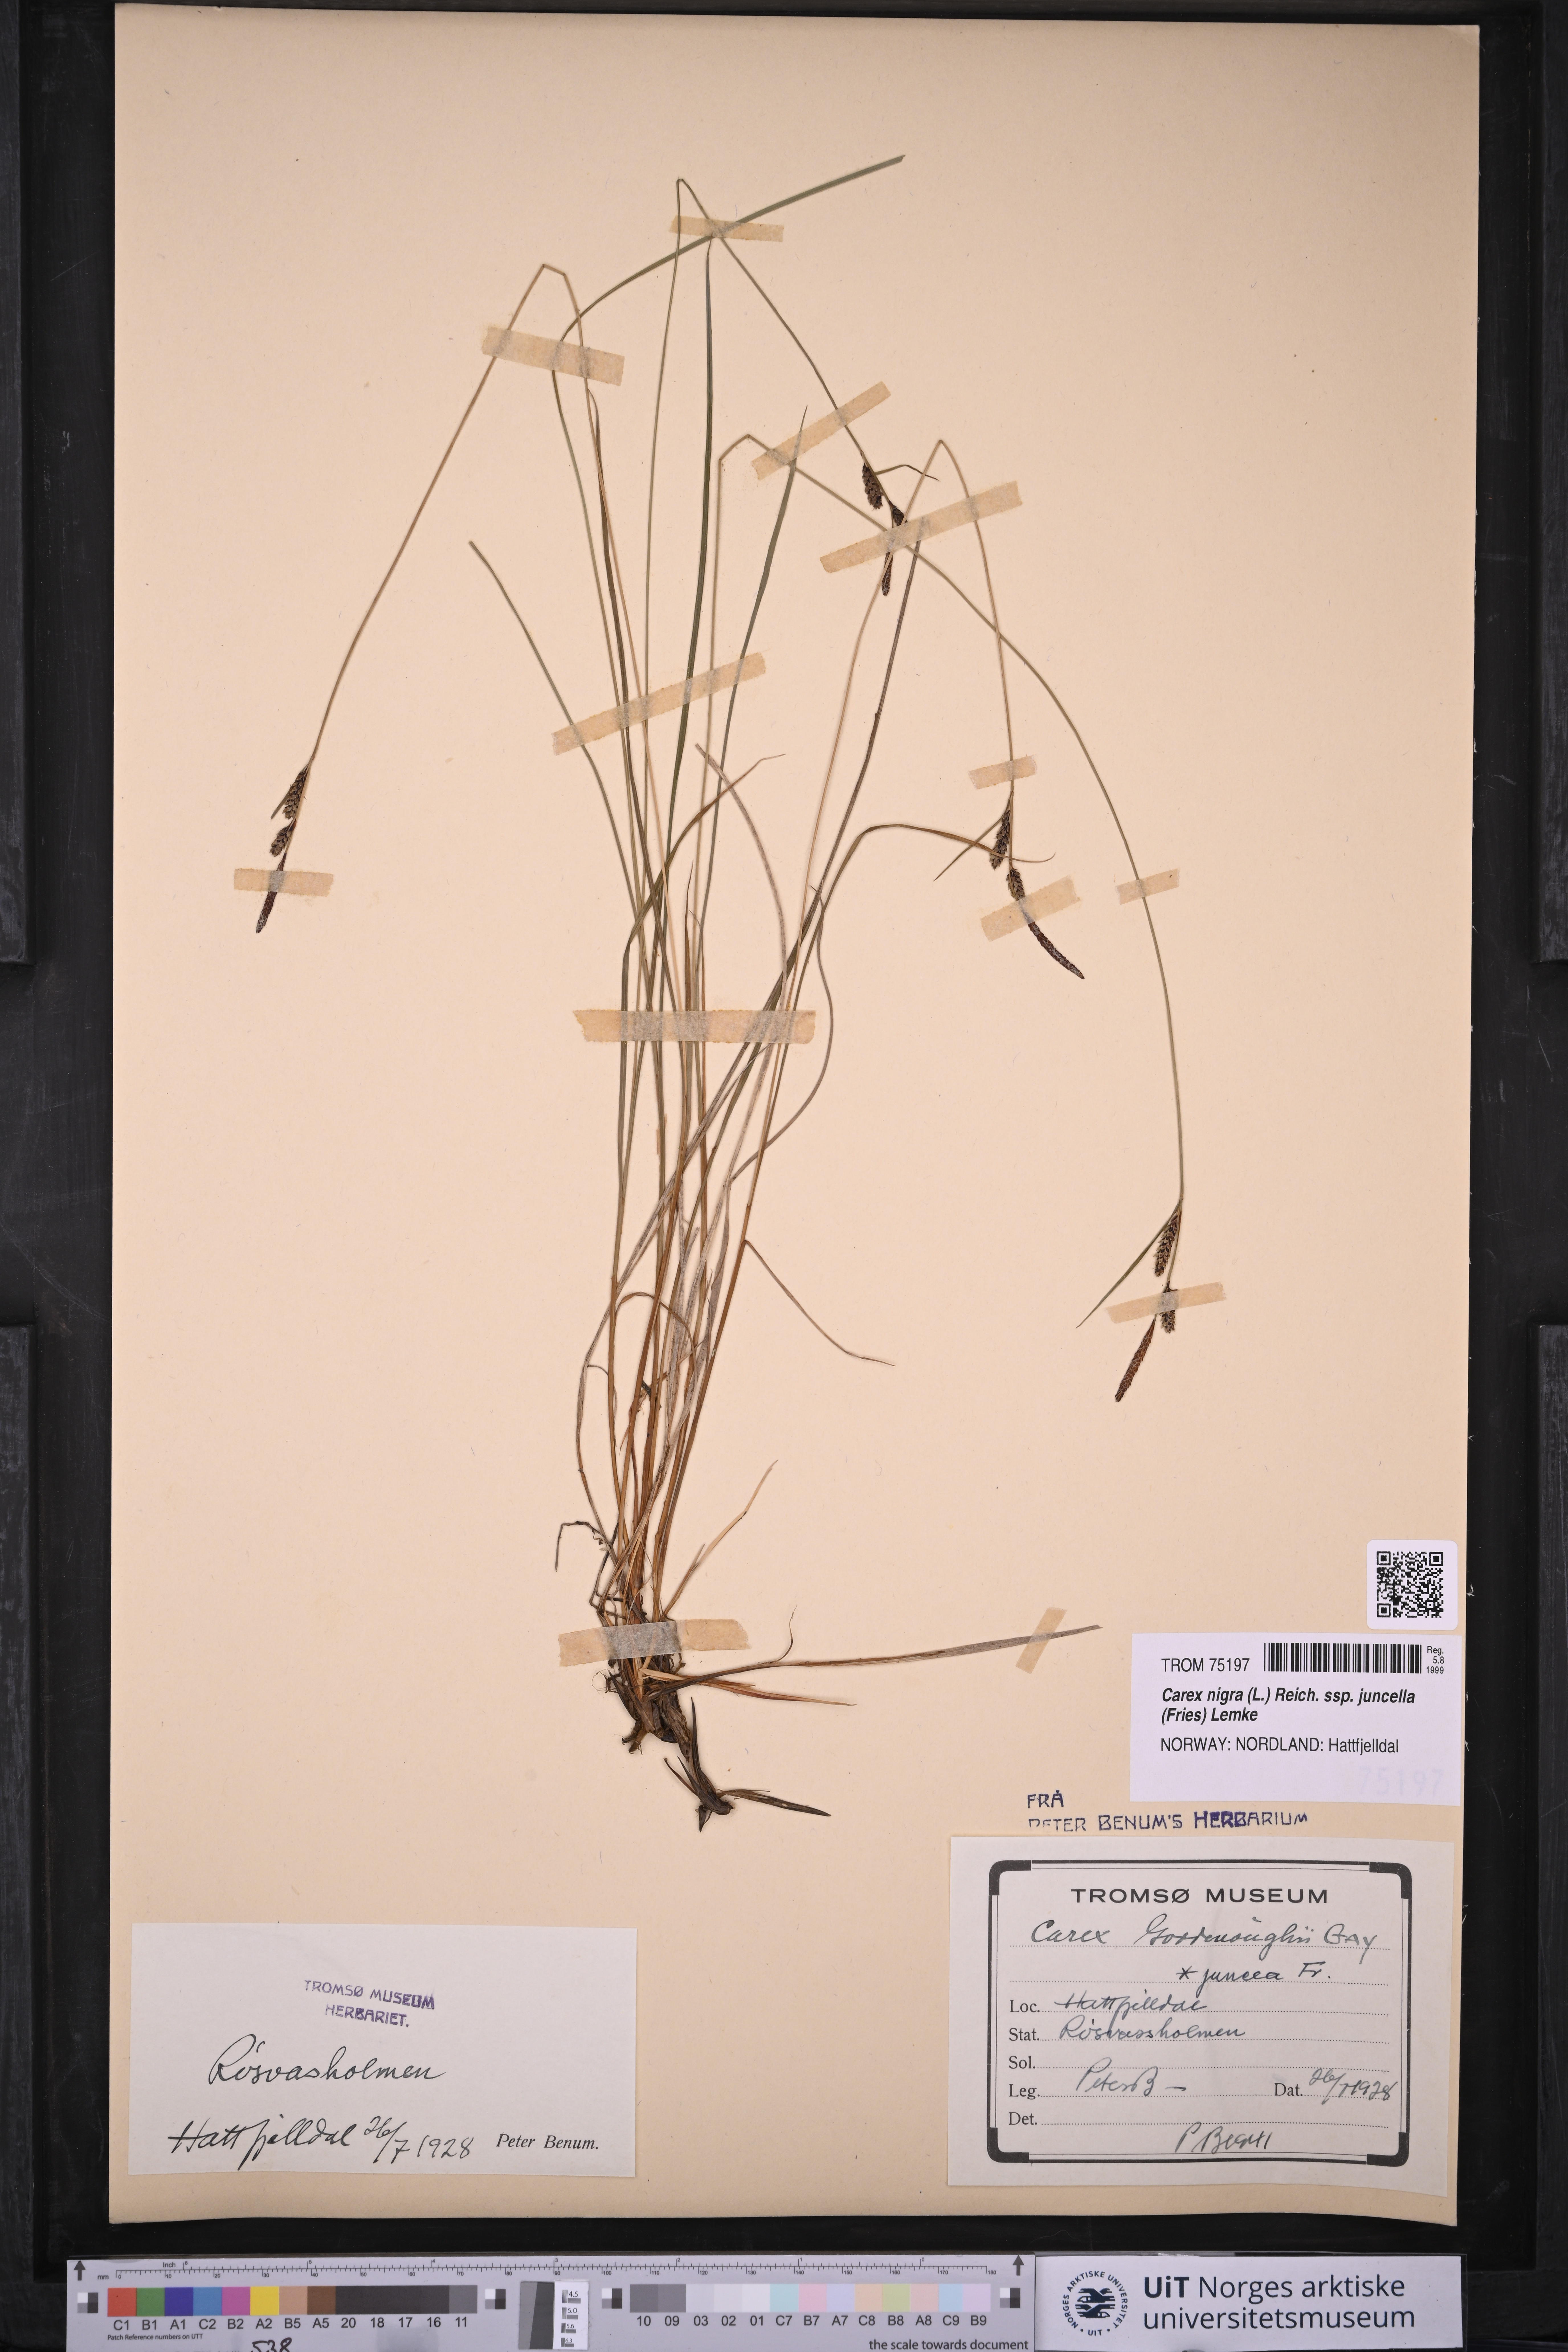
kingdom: Plantae
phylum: Tracheophyta
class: Liliopsida
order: Poales
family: Cyperaceae
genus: Carex
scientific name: Carex nigra
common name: Common sedge
